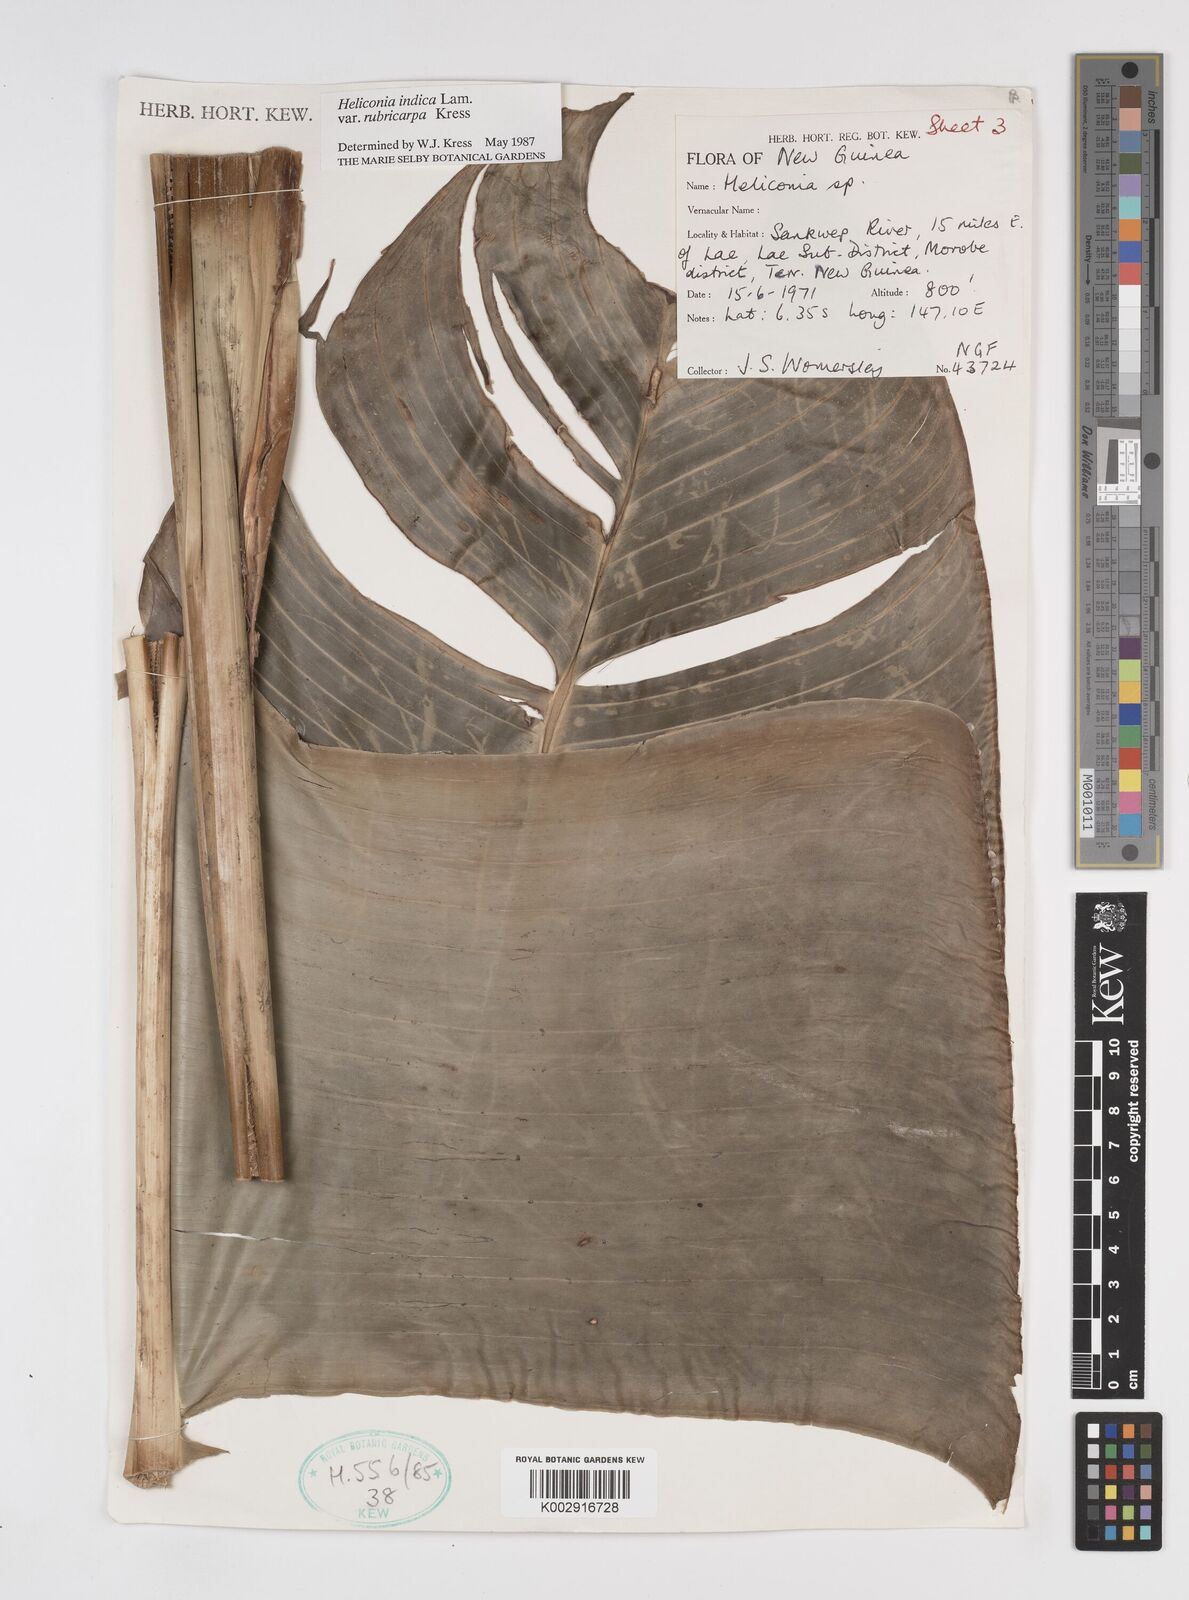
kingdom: Plantae
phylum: Tracheophyta
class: Liliopsida
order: Zingiberales
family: Heliconiaceae
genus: Heliconia
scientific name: Heliconia indica
